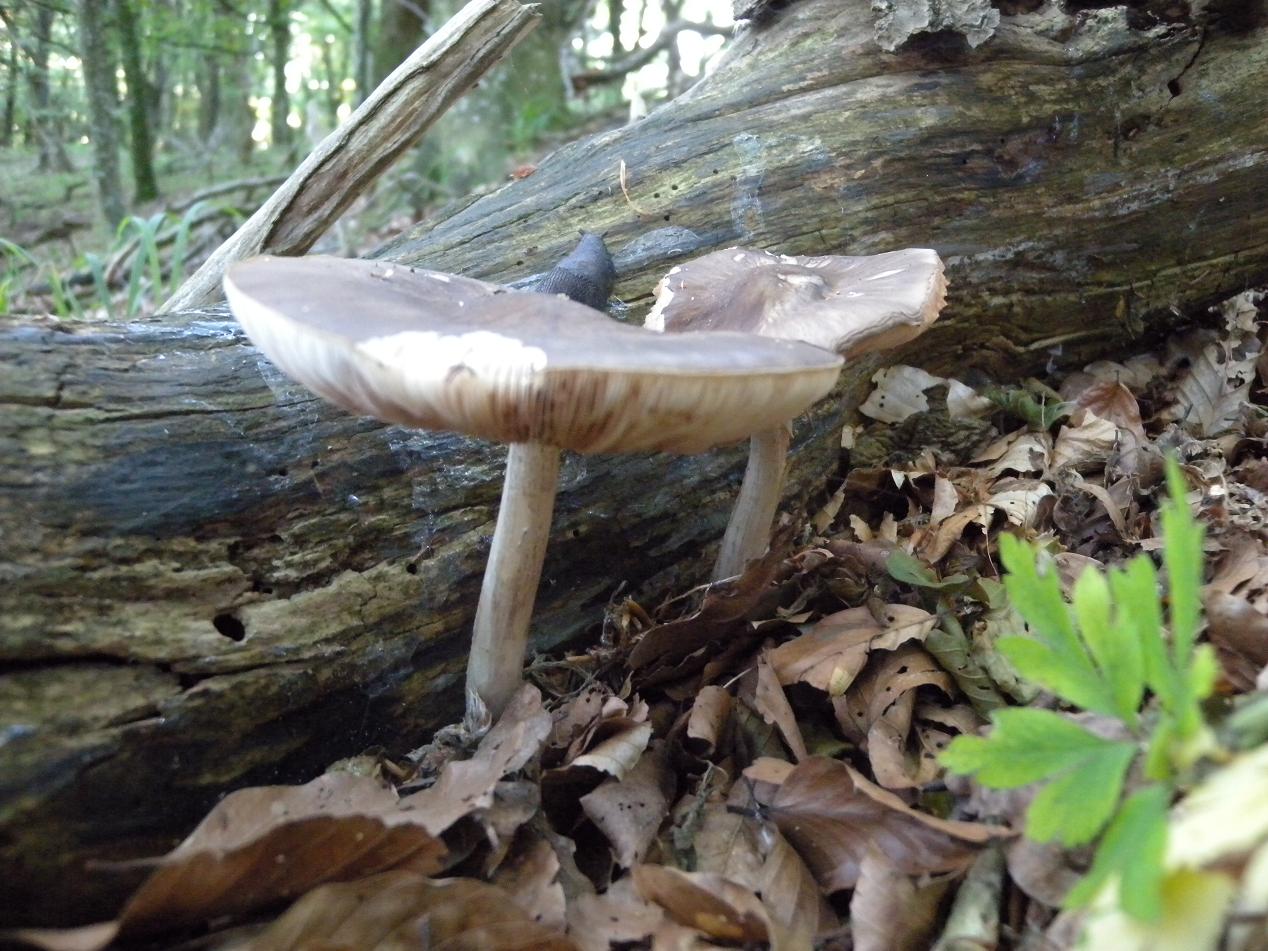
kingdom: Fungi
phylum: Basidiomycota
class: Agaricomycetes
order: Agaricales
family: Pluteaceae
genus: Pluteus
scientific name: Pluteus cervinus
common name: sodfarvet skærmhat
